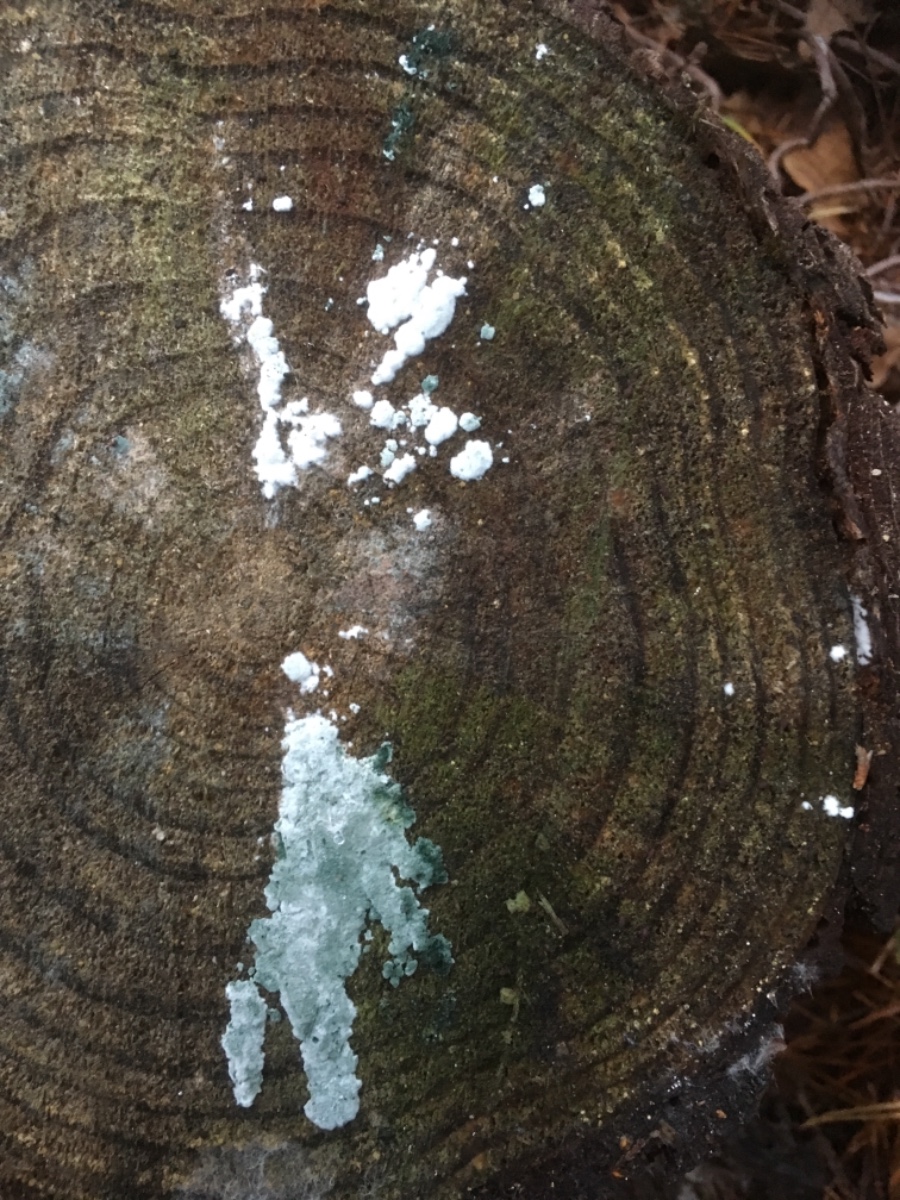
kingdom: Fungi
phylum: Ascomycota
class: Sordariomycetes
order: Hypocreales
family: Hypocreaceae
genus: Trichoderma
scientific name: Trichoderma
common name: kødkerne
